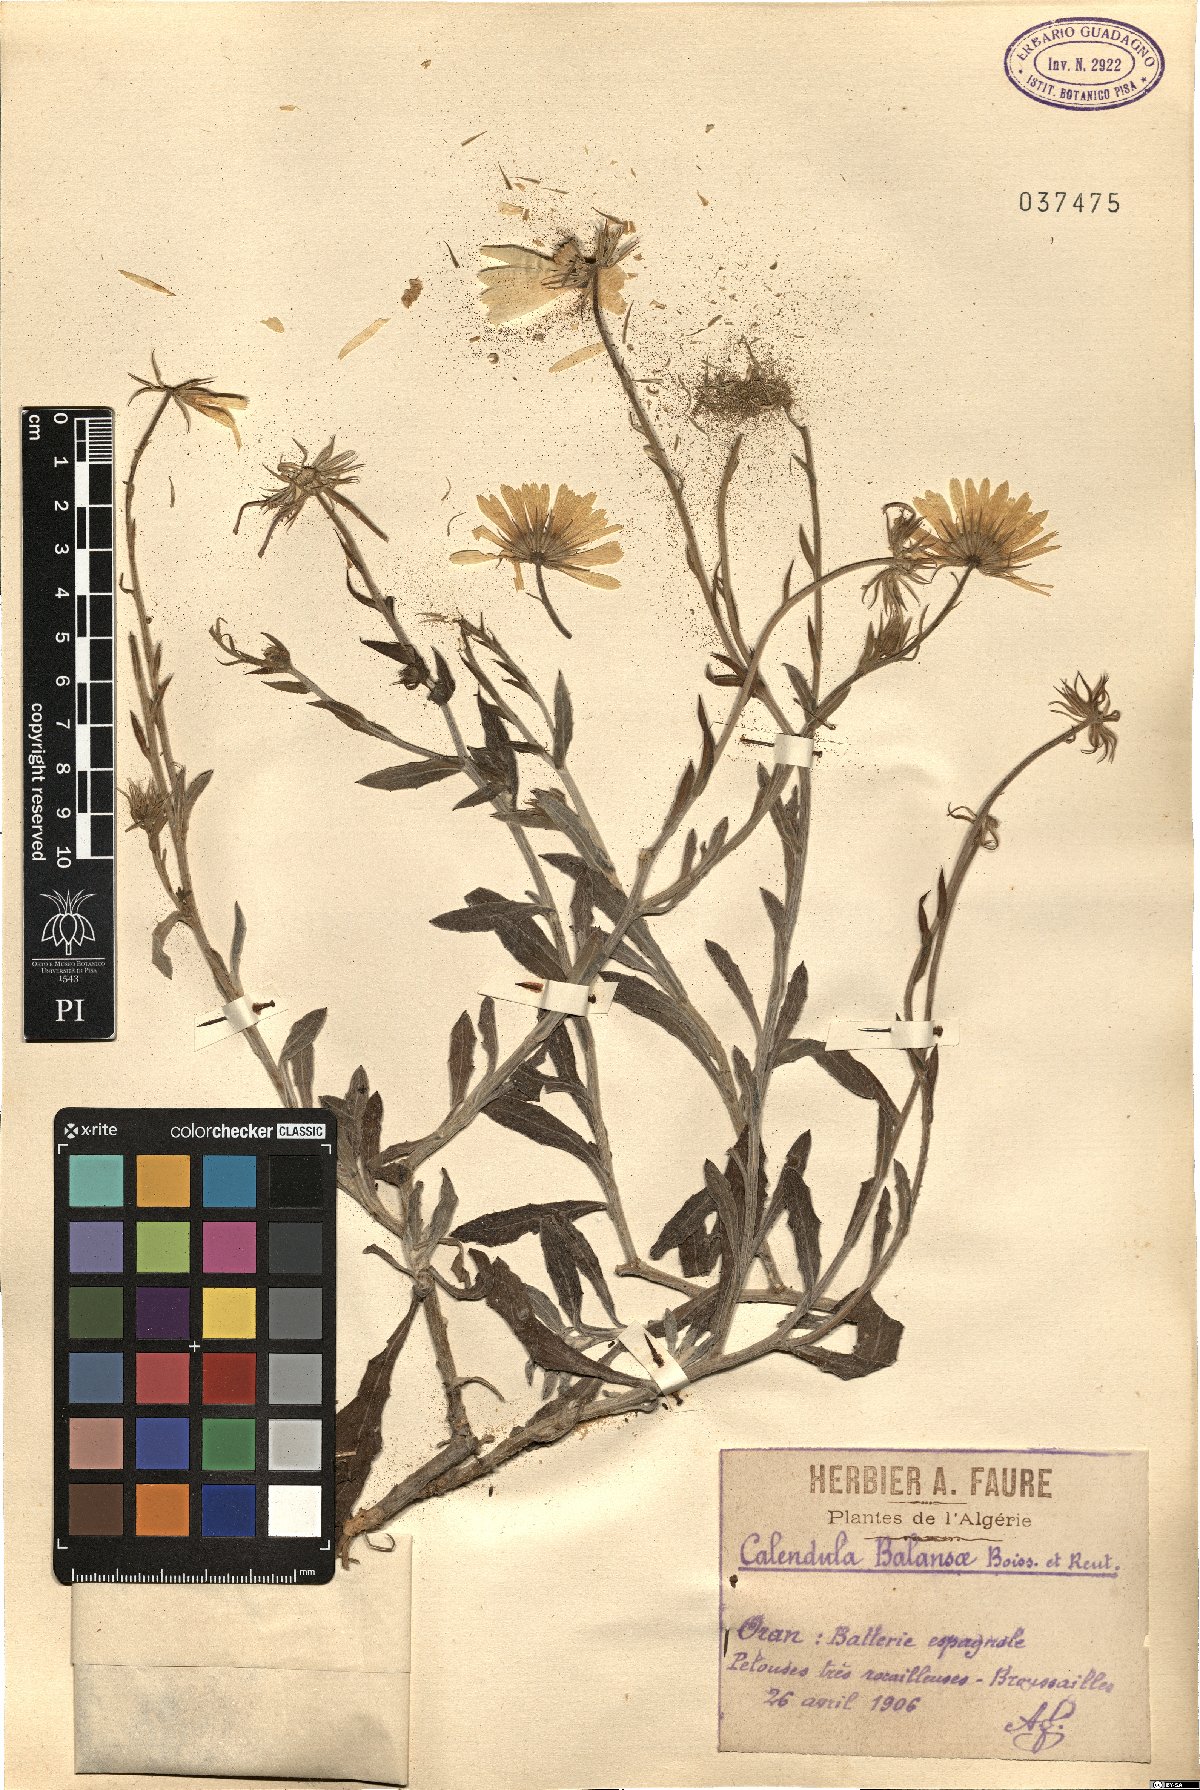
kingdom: Plantae
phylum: Tracheophyta
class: Magnoliopsida
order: Asterales
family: Asteraceae
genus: Calendula
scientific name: Calendula suffruticosa
